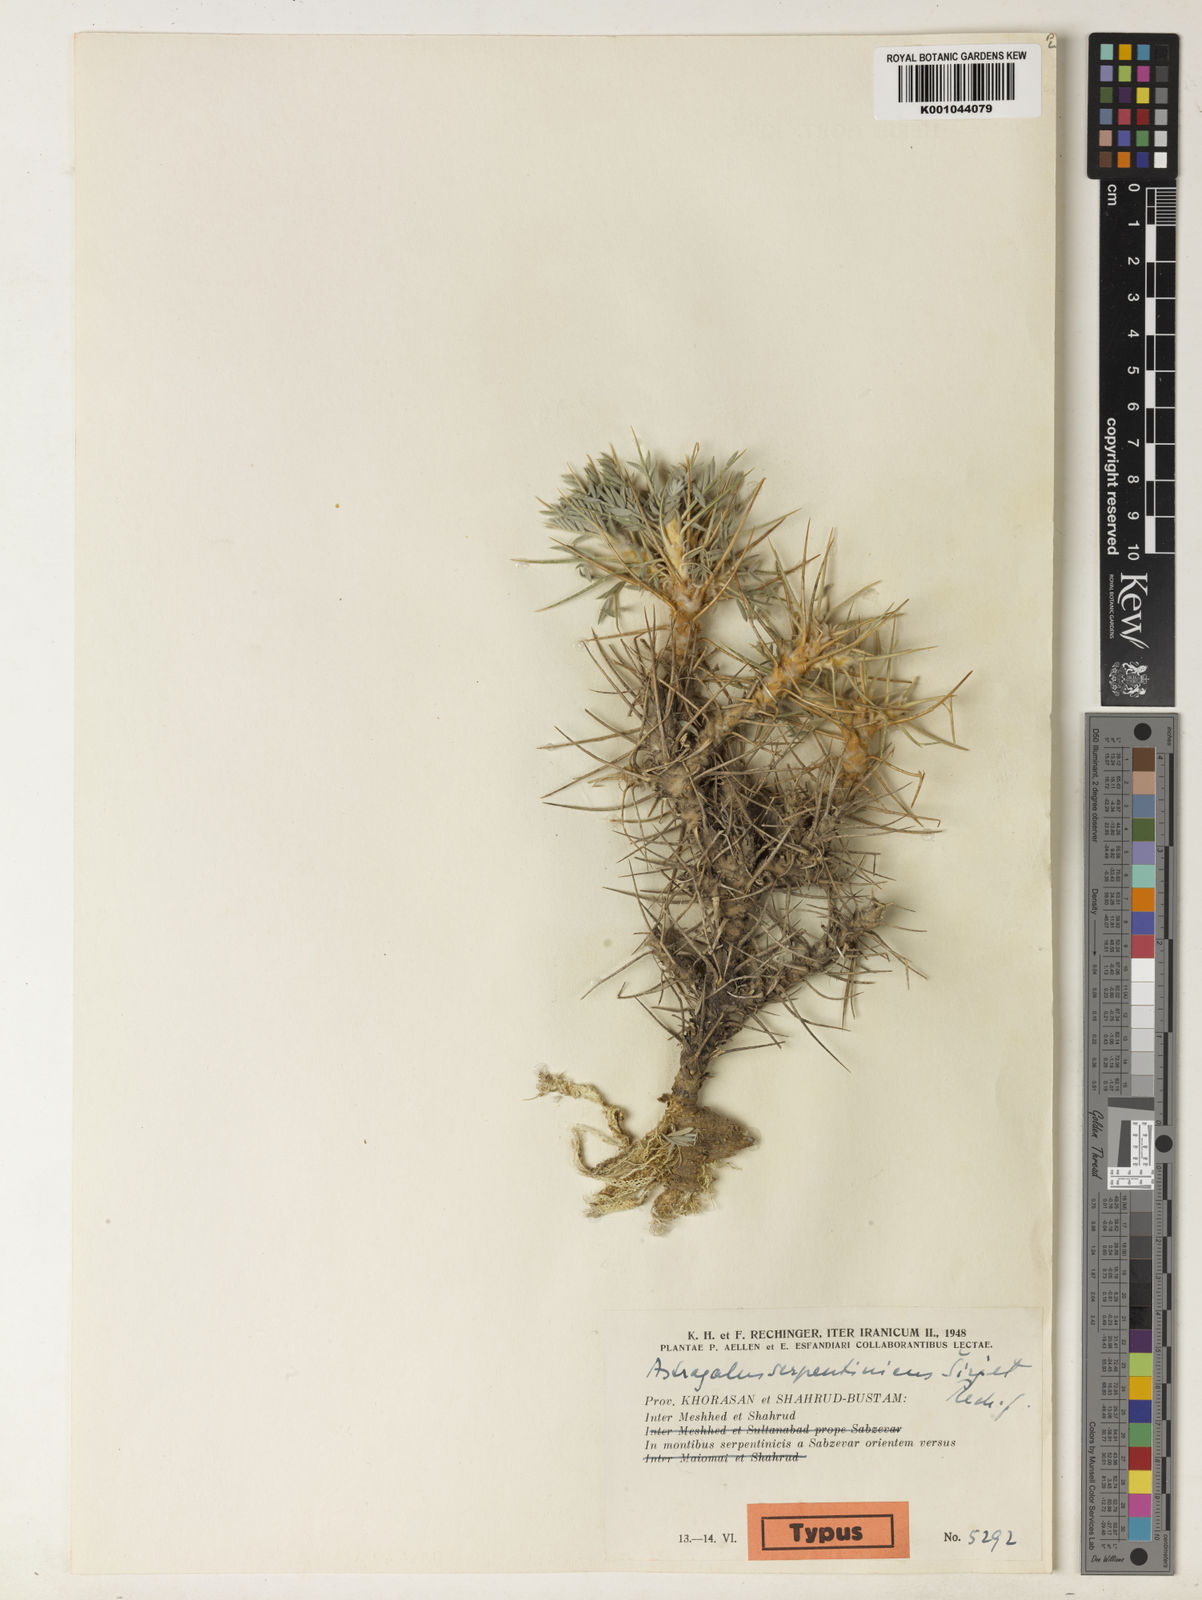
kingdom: Plantae
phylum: Tracheophyta
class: Magnoliopsida
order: Fabales
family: Fabaceae
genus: Astragalus
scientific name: Astragalus verus
